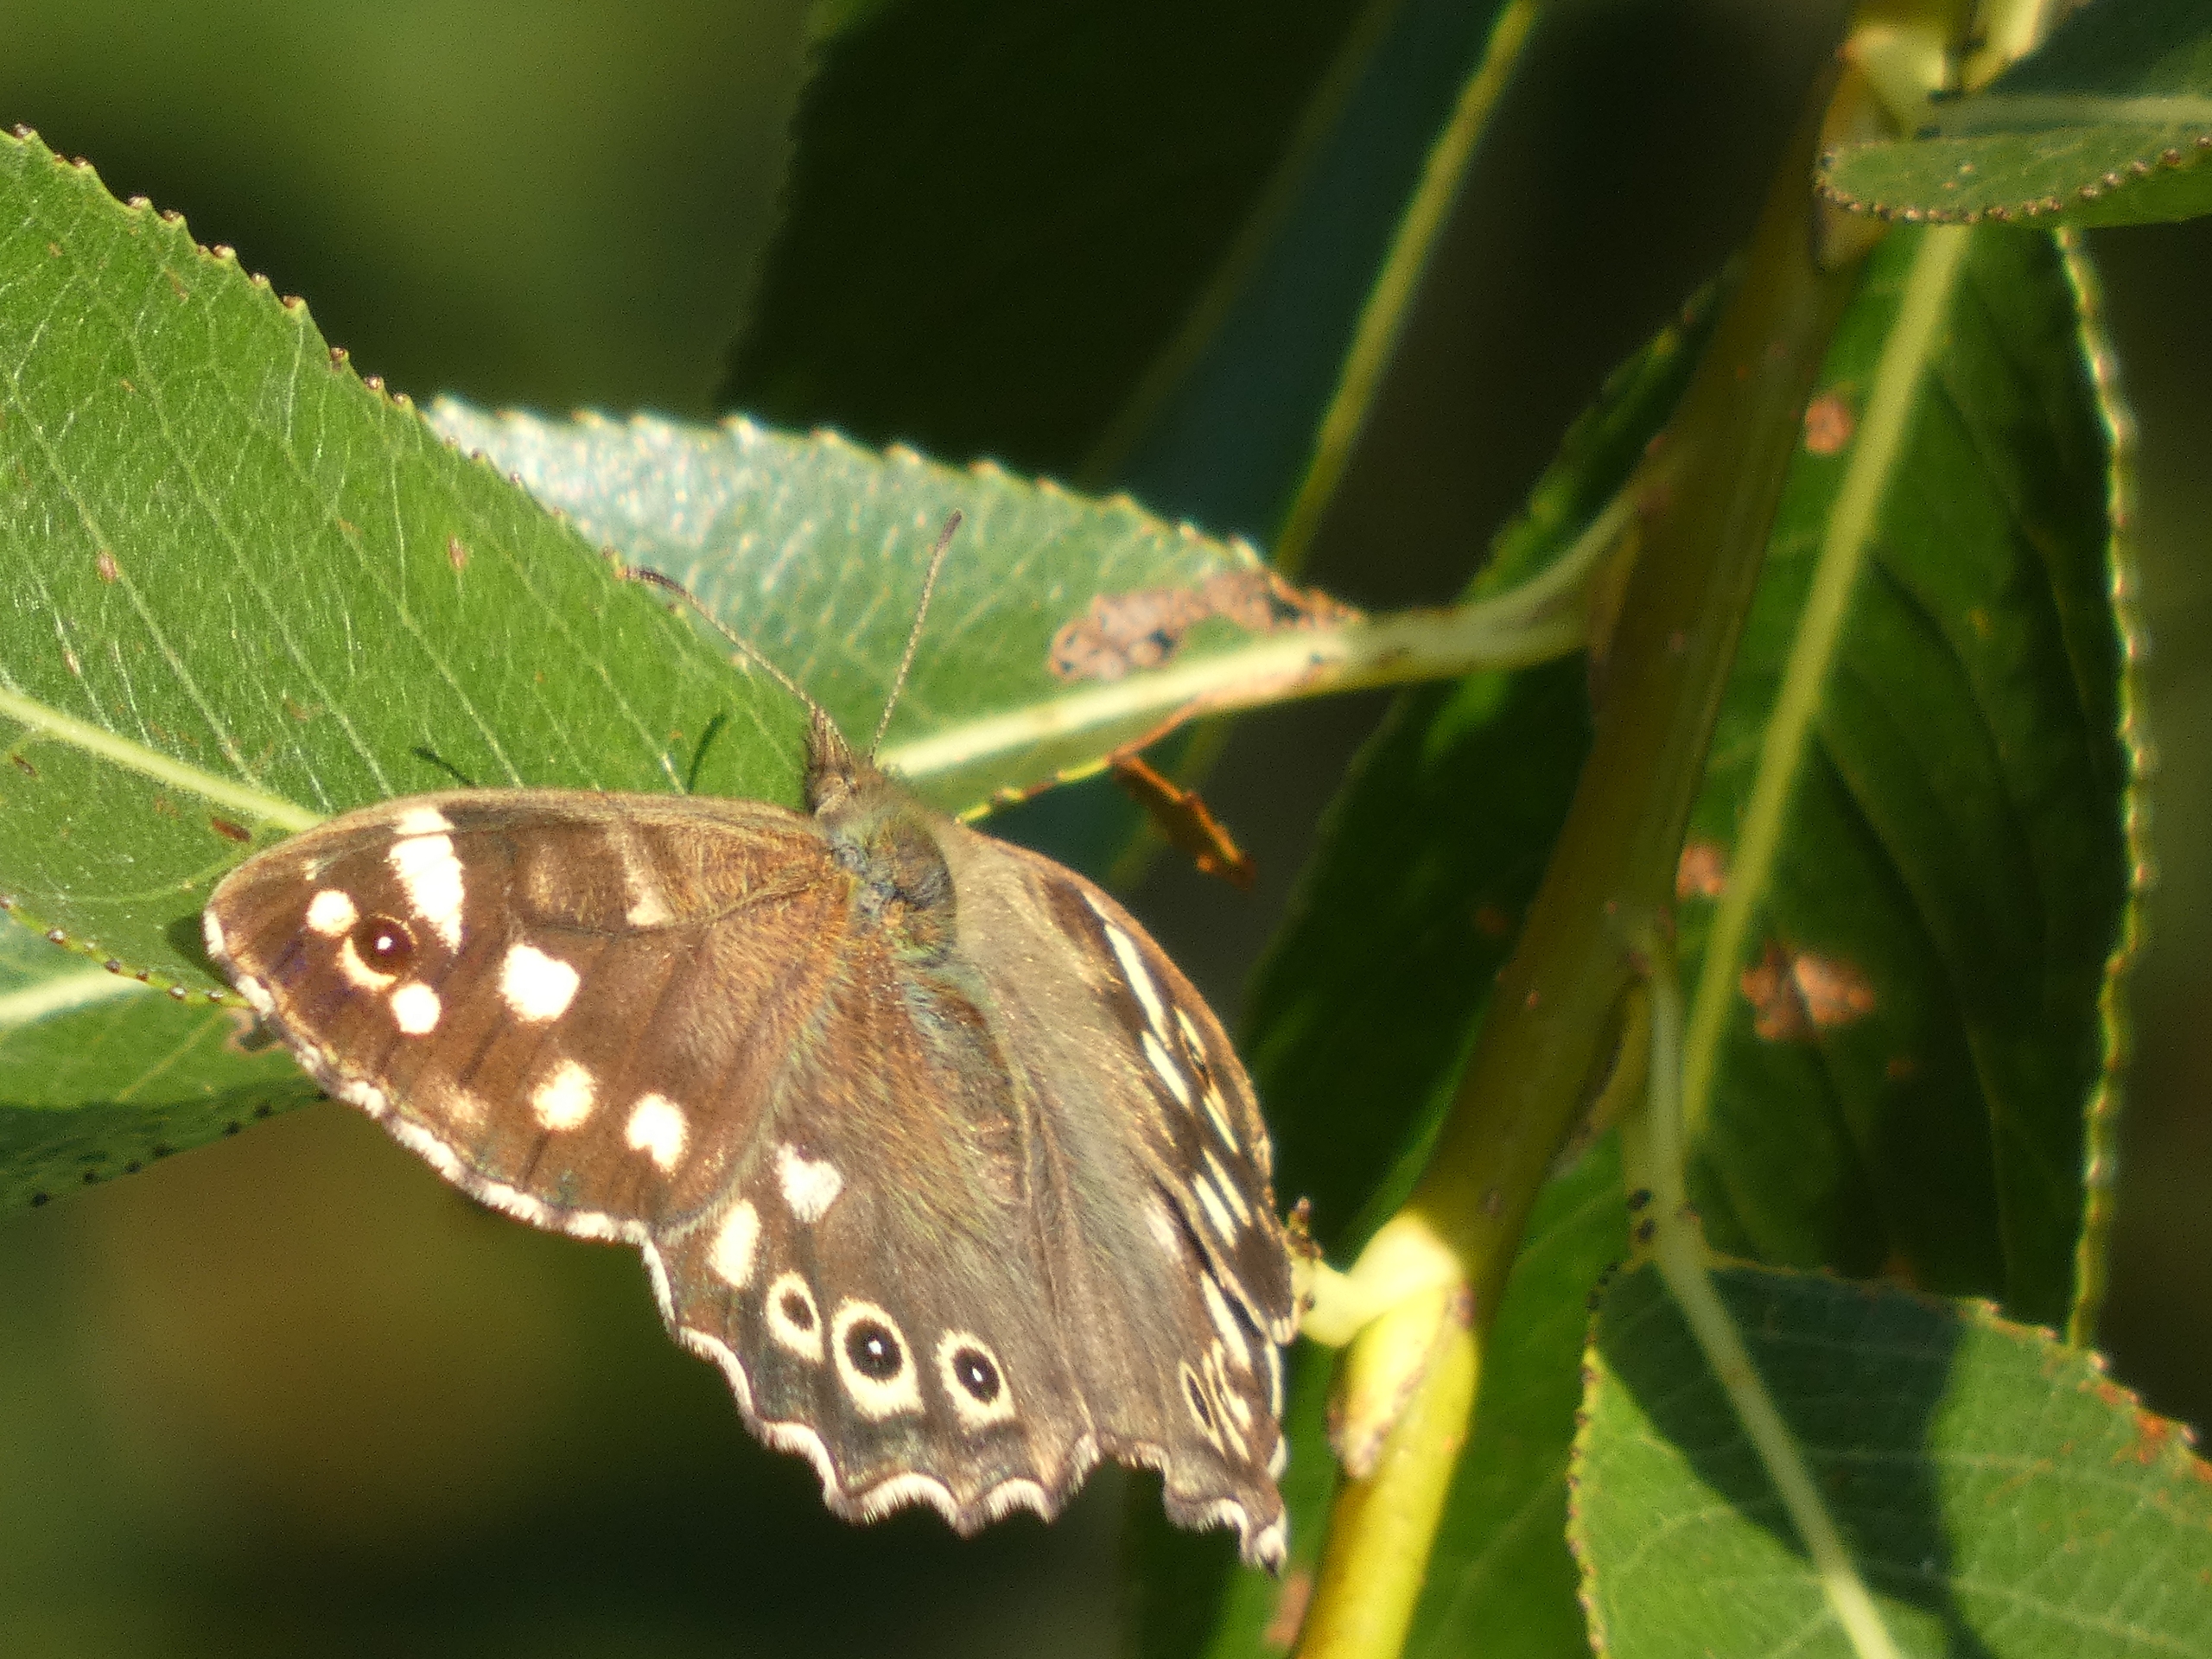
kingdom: Animalia
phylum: Arthropoda
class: Insecta
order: Lepidoptera
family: Nymphalidae
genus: Pararge
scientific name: Pararge aegeria
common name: Skovrandøje
